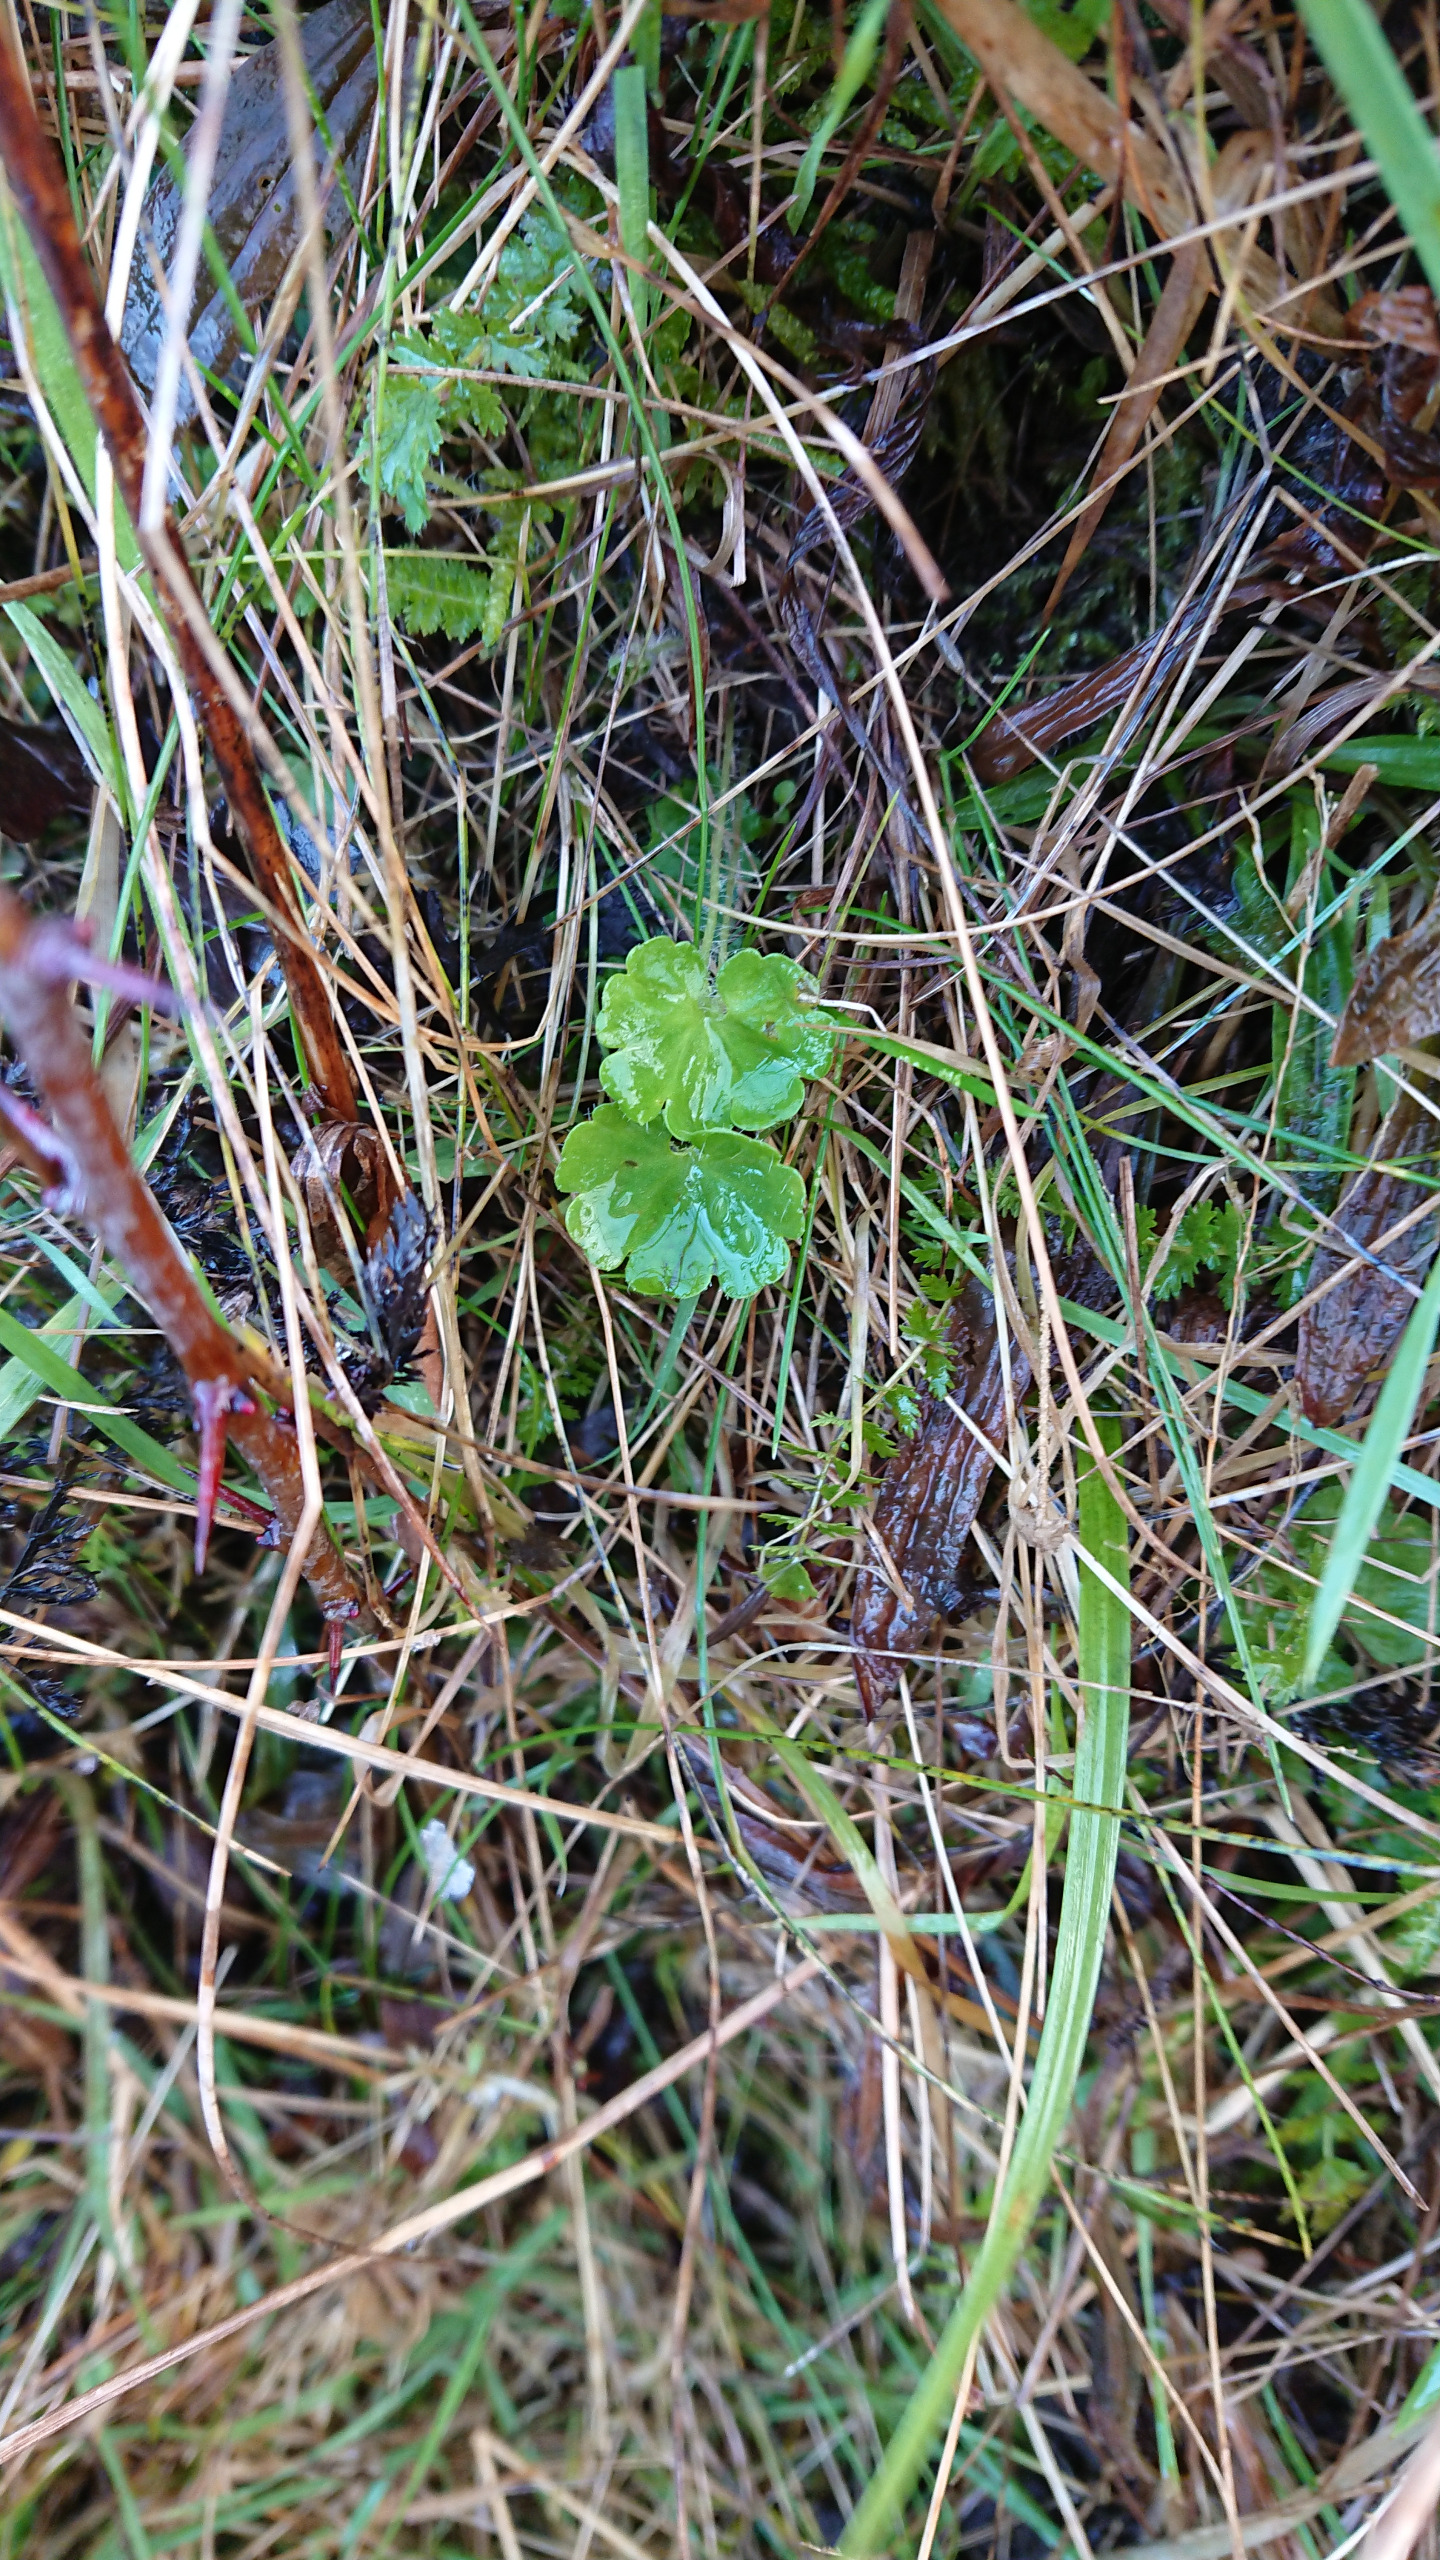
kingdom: Plantae
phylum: Tracheophyta
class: Magnoliopsida
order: Saxifragales
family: Saxifragaceae
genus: Saxifraga
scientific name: Saxifraga granulata
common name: Kornet stenbræk
